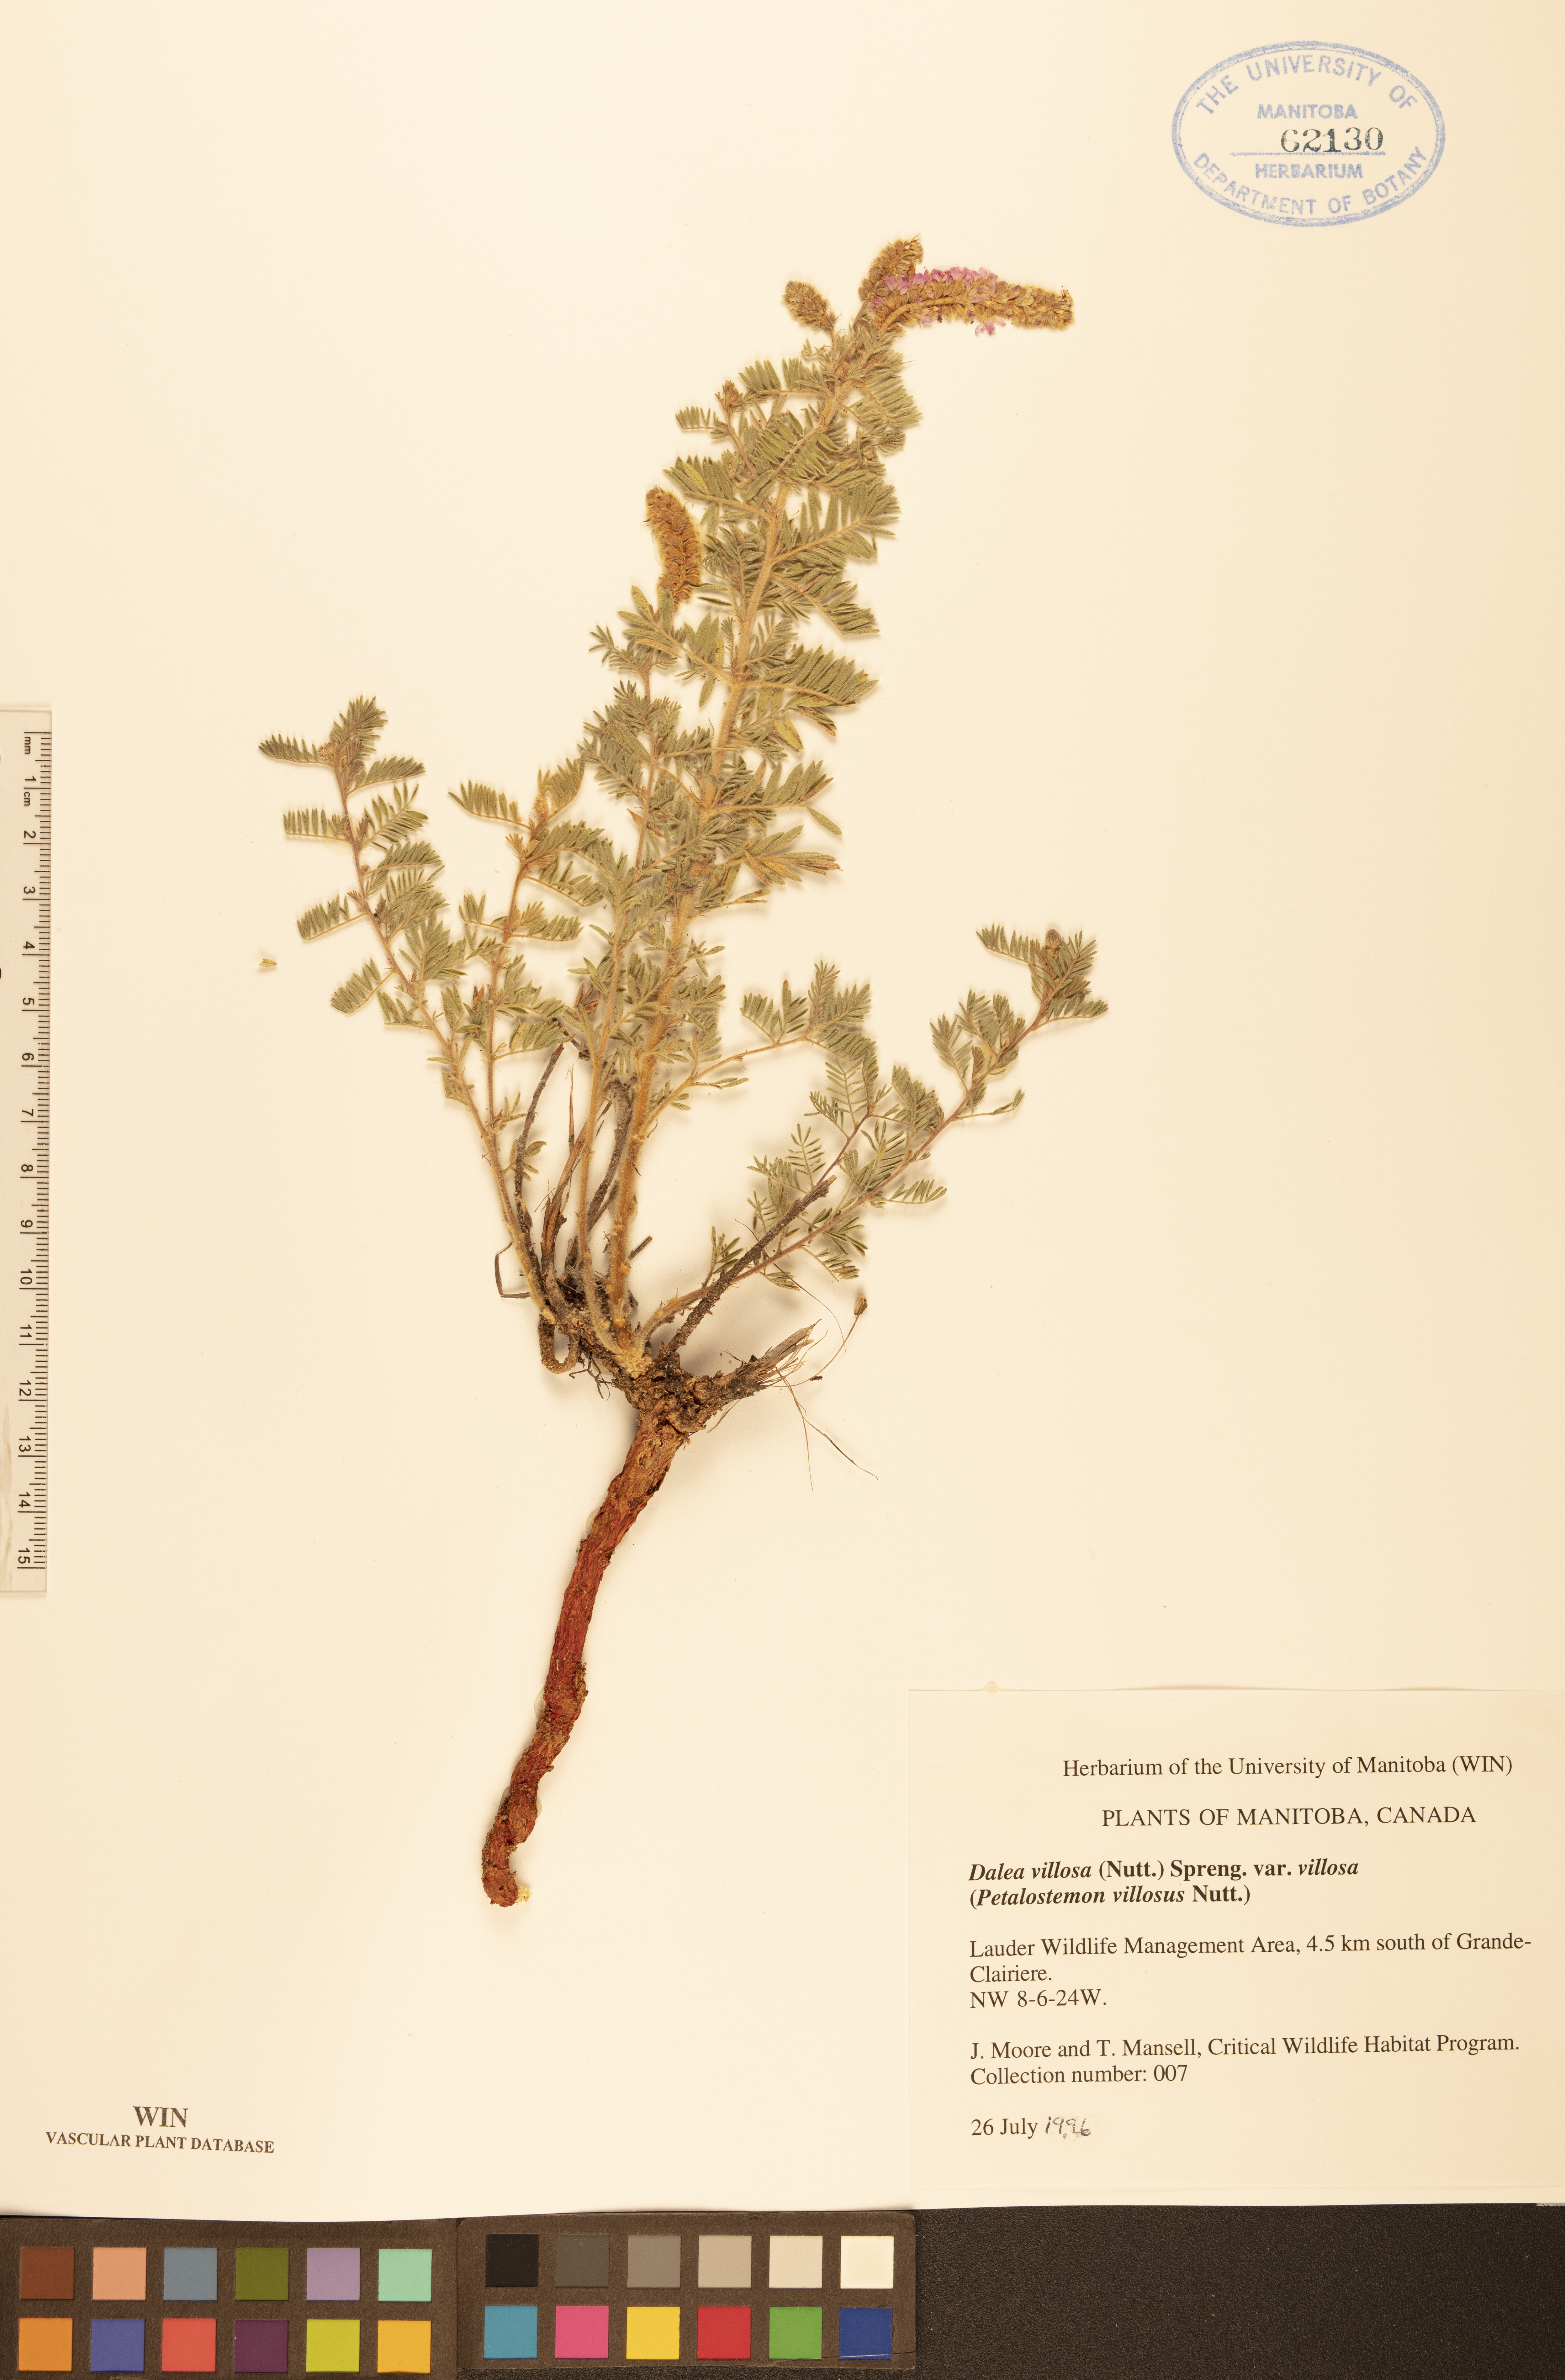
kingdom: Plantae
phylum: Tracheophyta
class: Magnoliopsida
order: Fabales
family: Fabaceae
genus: Dalea
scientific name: Dalea villosa
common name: Silky prairie-clover
